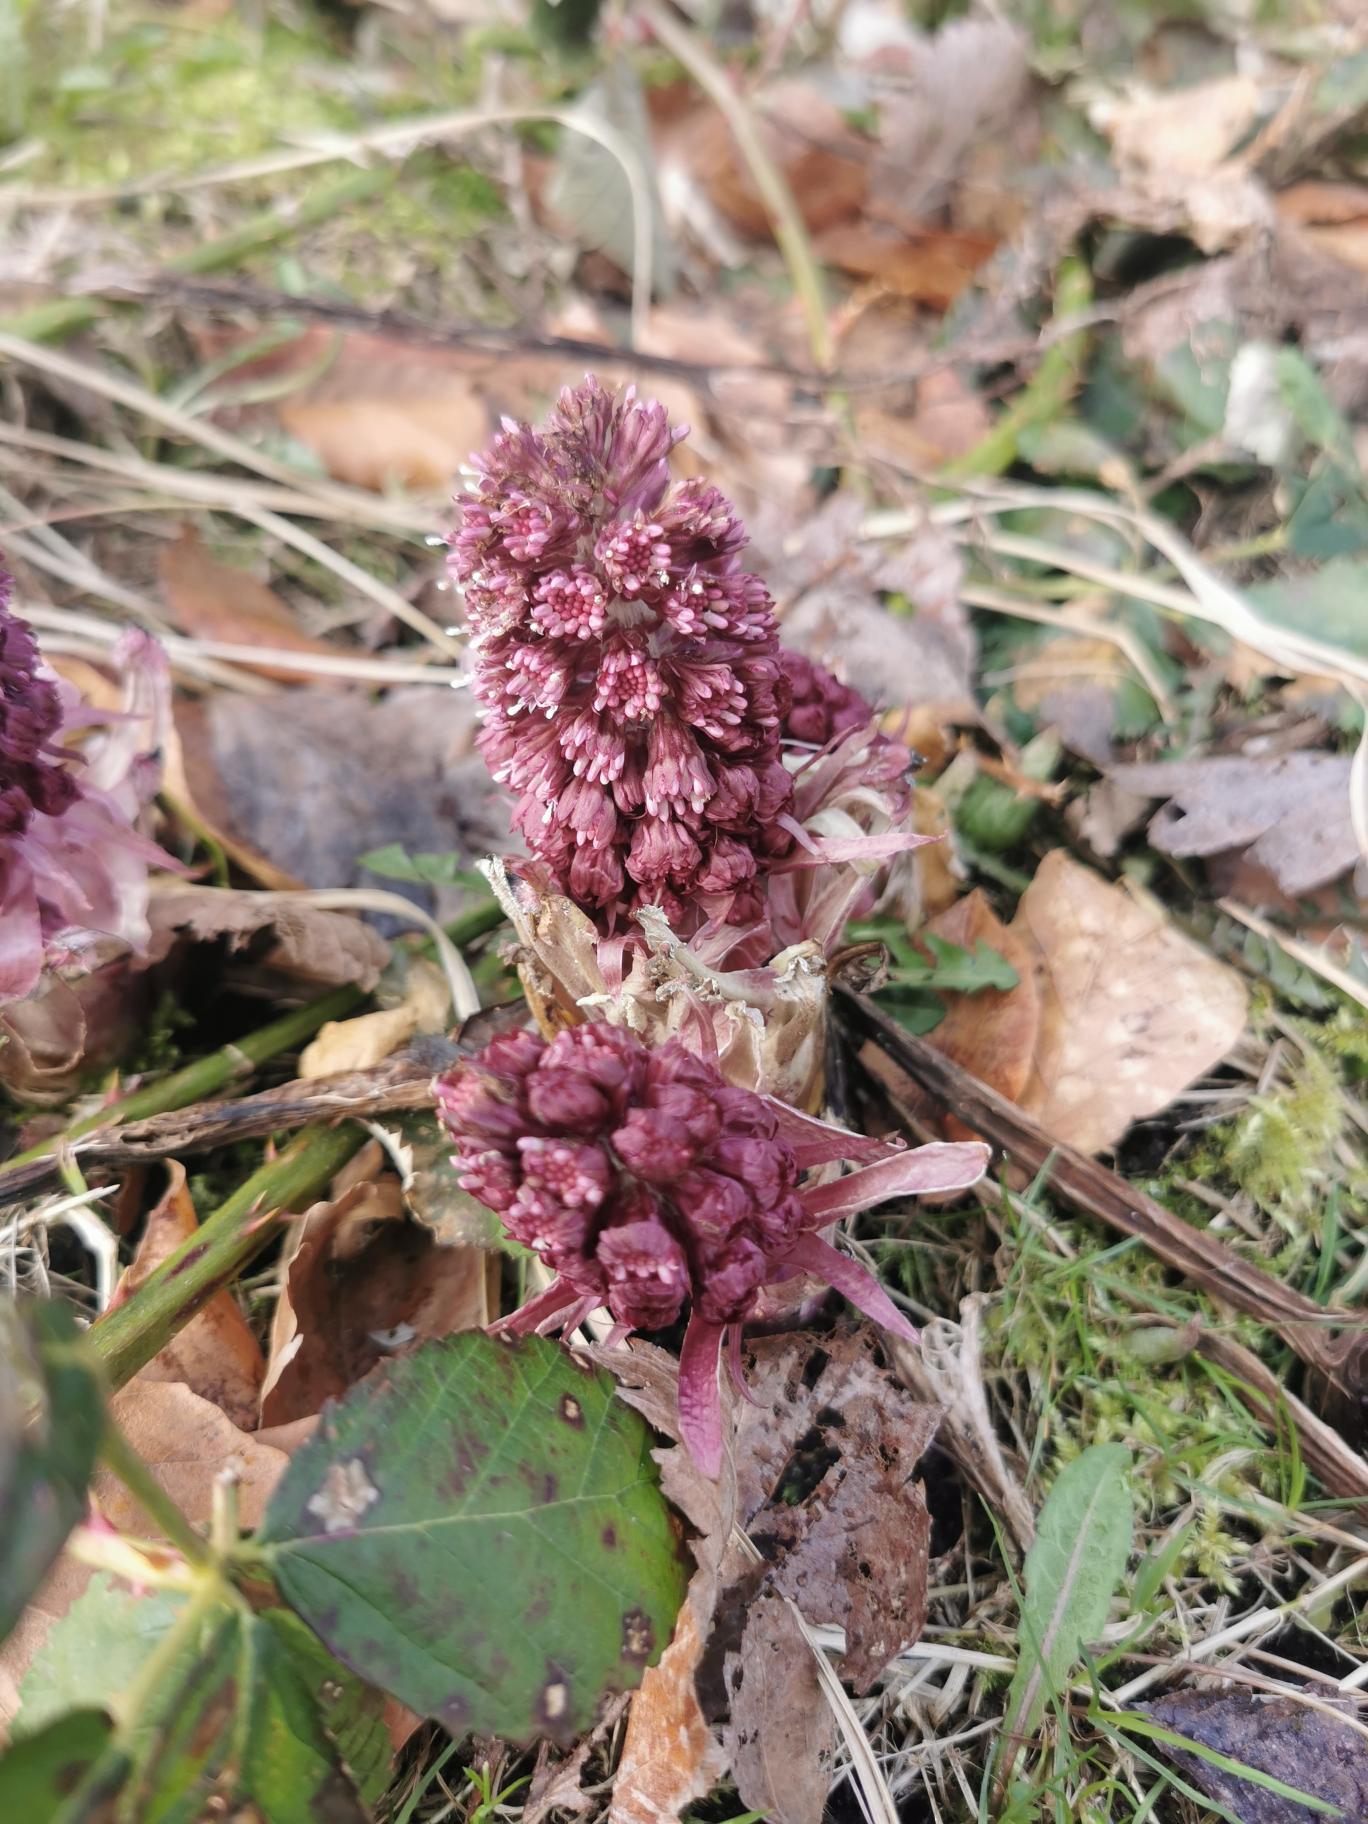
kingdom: Plantae
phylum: Tracheophyta
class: Magnoliopsida
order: Asterales
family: Asteraceae
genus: Petasites
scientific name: Petasites hybridus
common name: Rød hestehov
